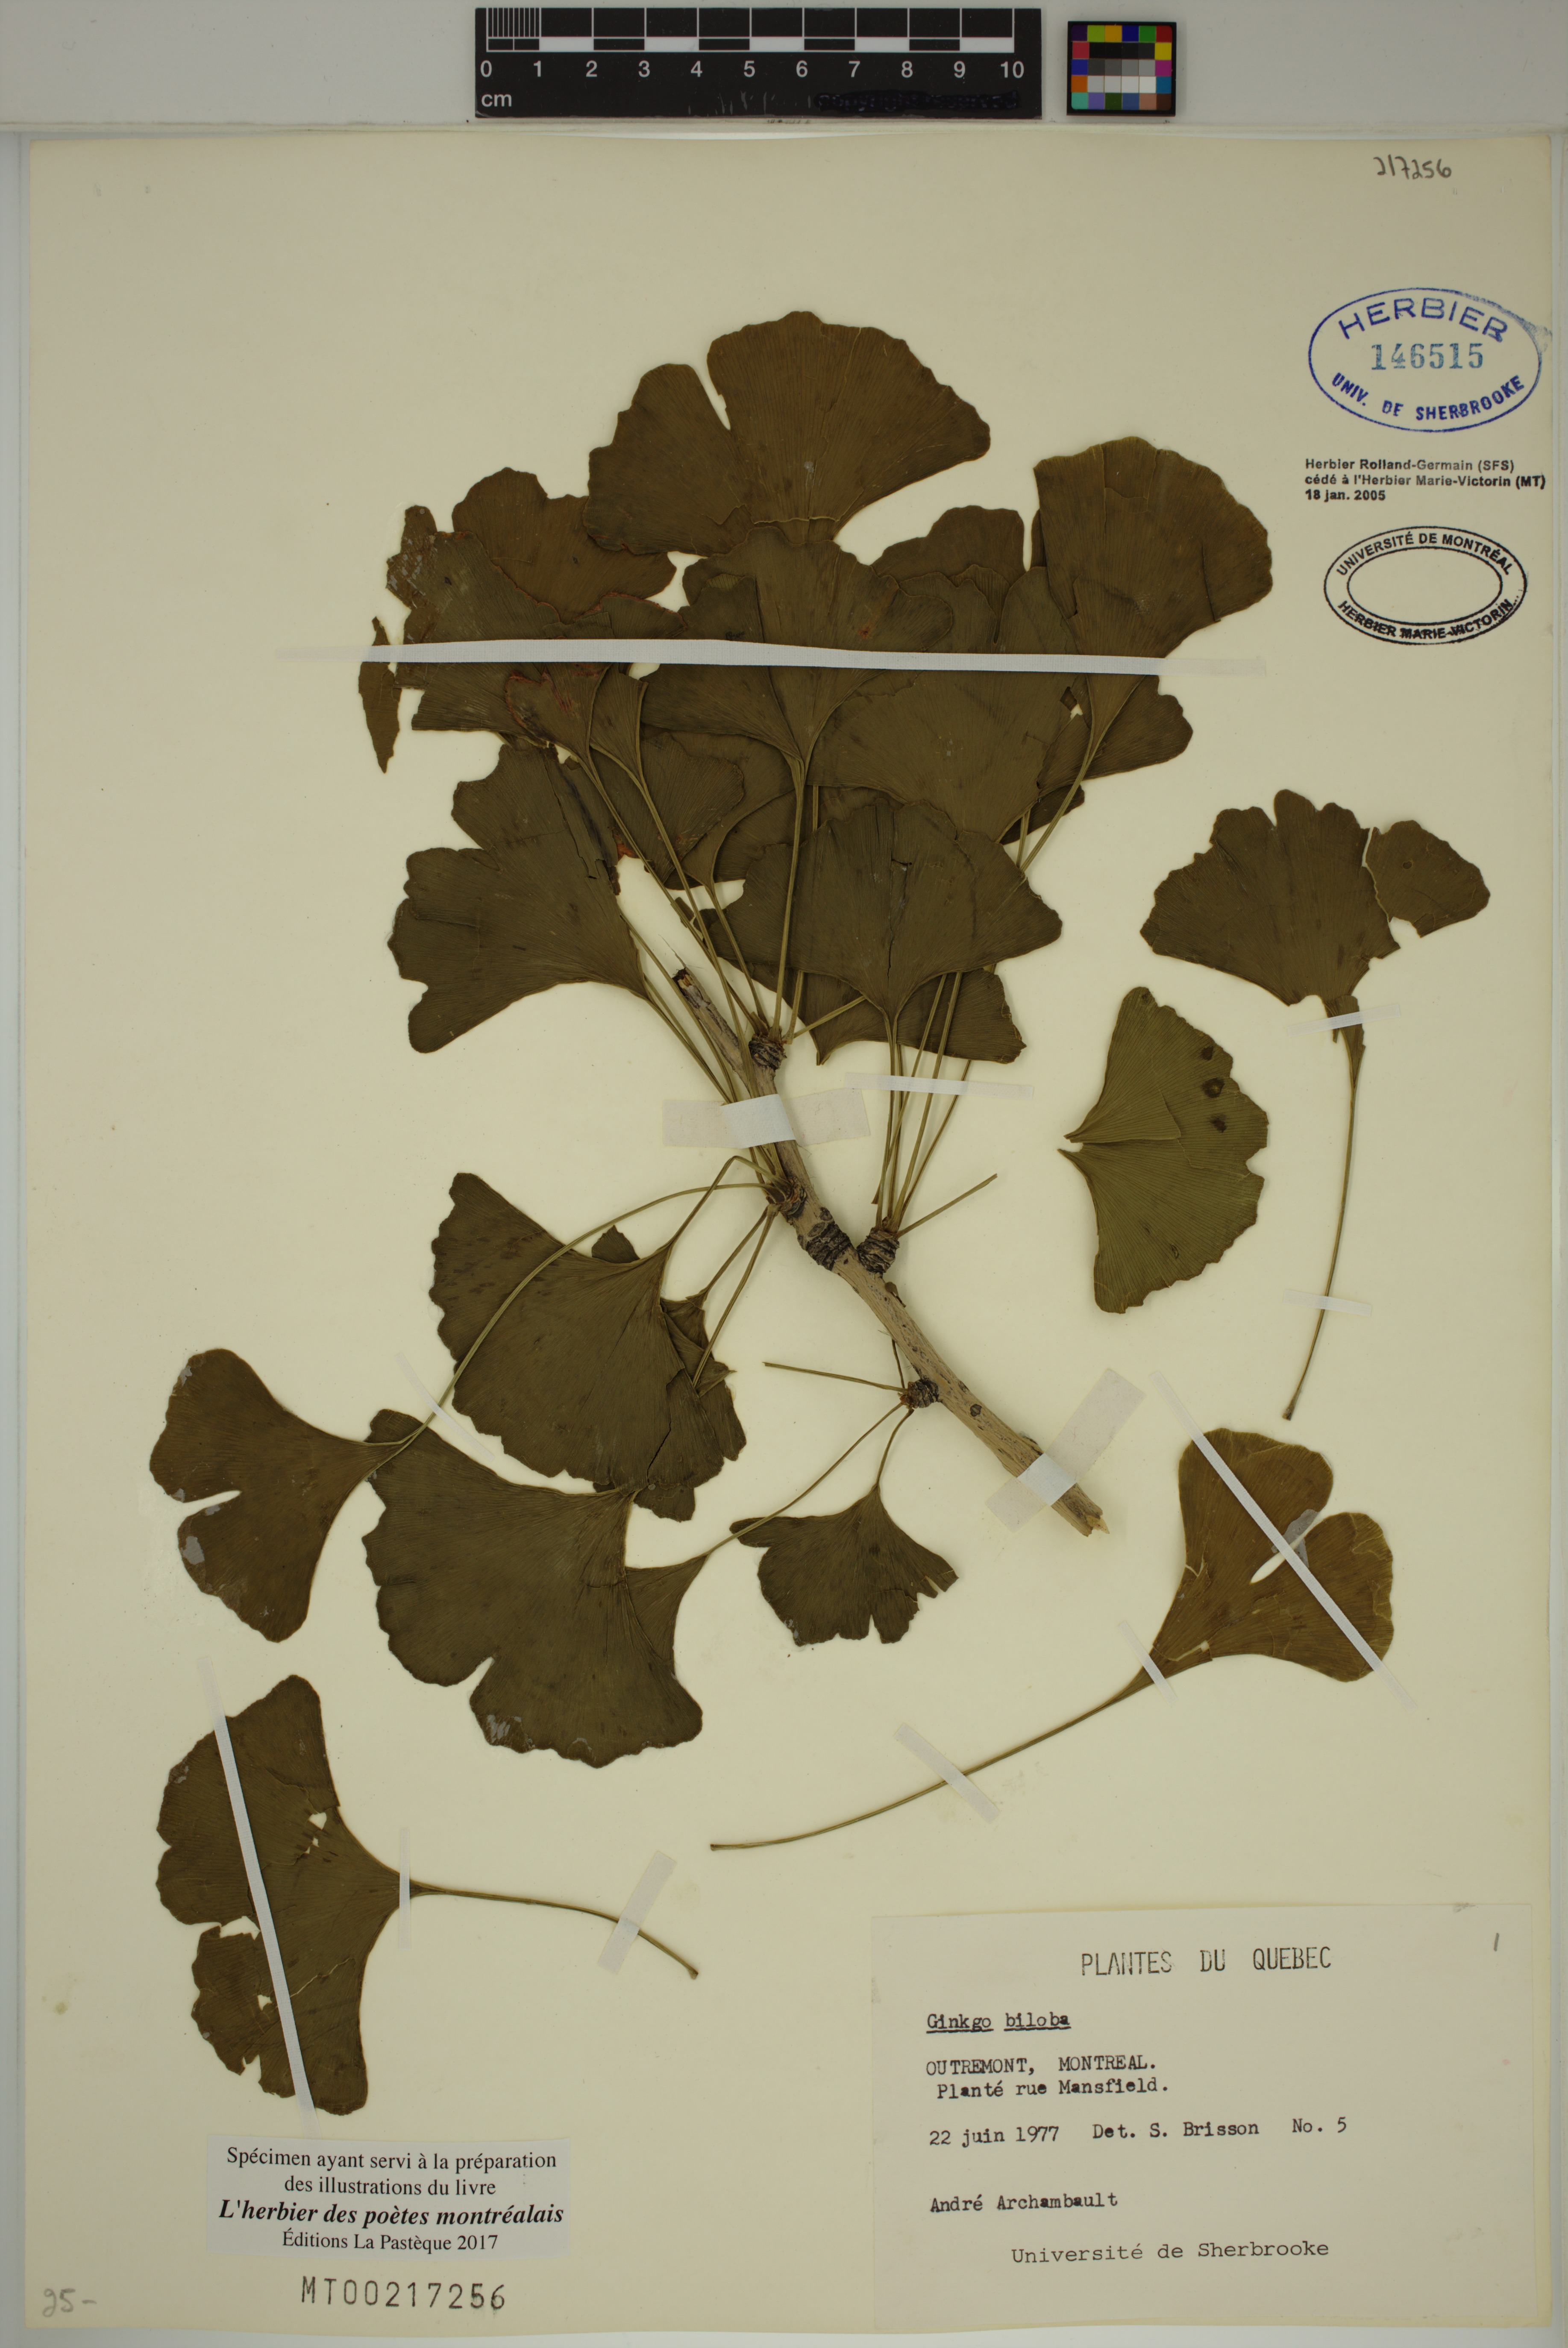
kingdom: Plantae
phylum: Tracheophyta
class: Ginkgoopsida
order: Ginkgoales
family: Ginkgoaceae
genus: Ginkgo
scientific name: Ginkgo biloba
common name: Ginkgo
